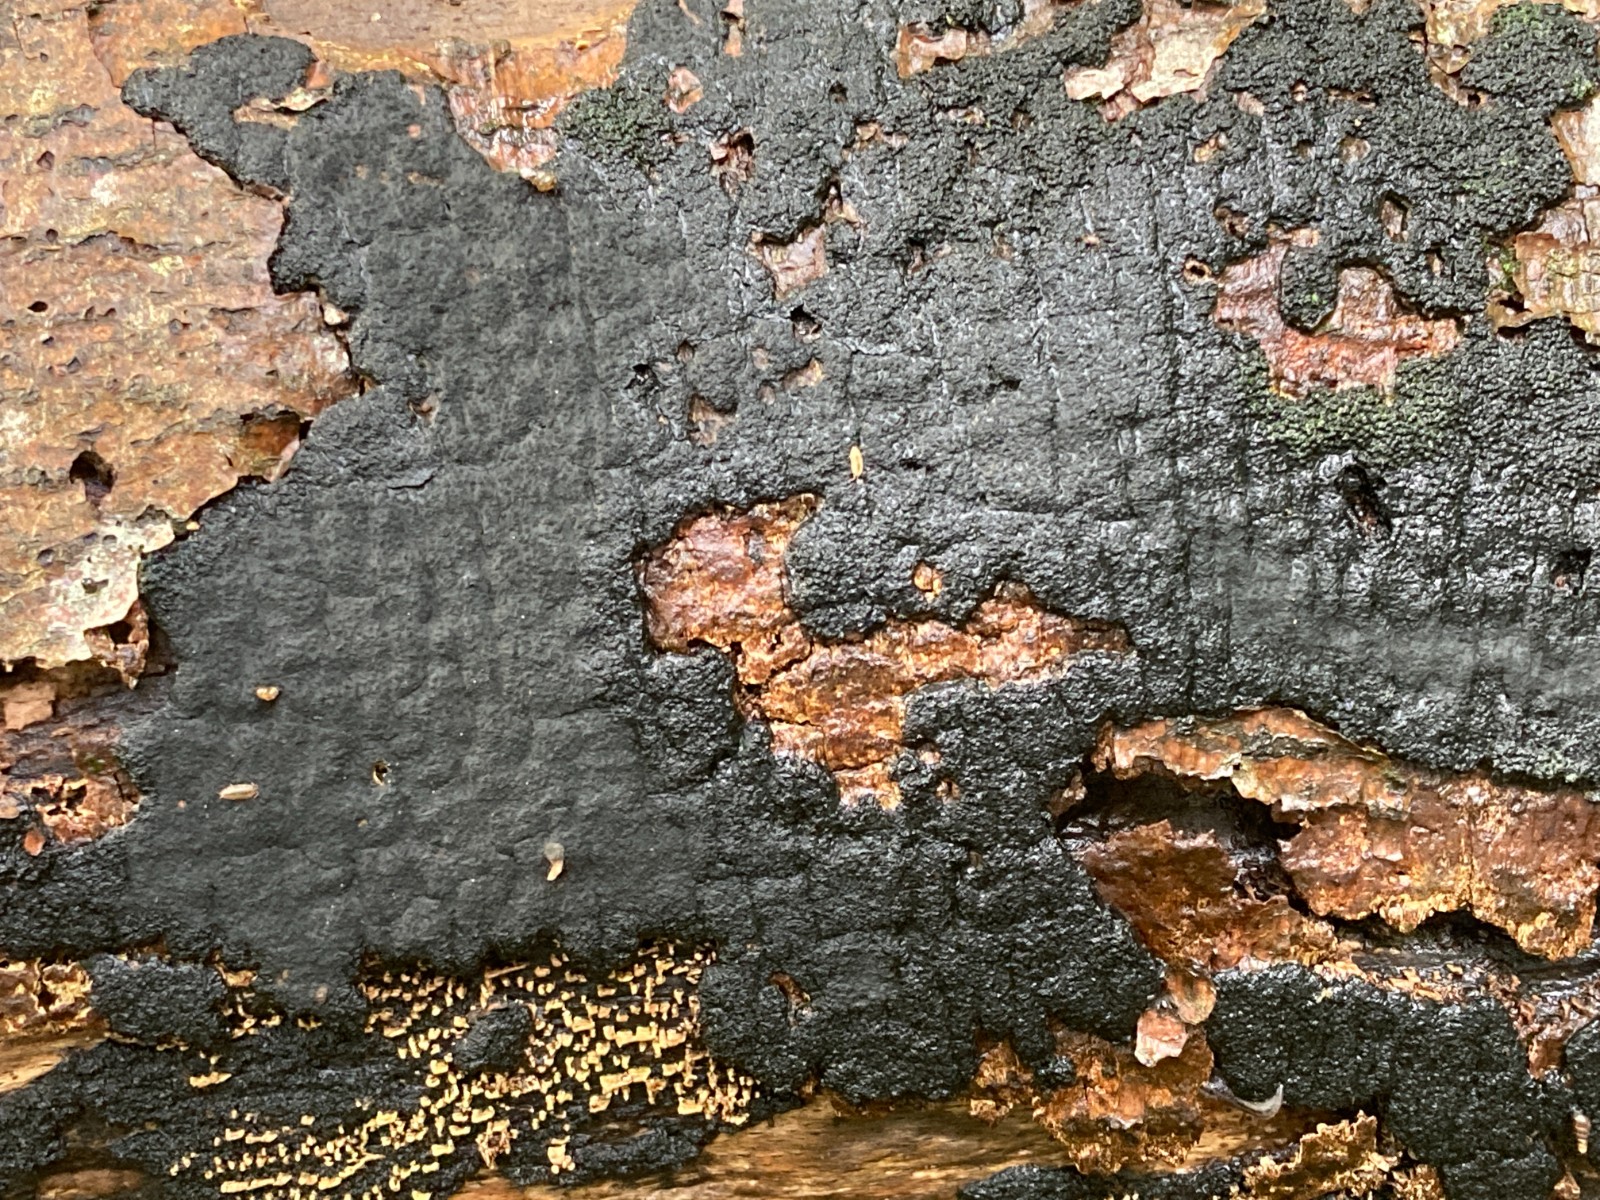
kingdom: Fungi
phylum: Ascomycota
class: Sordariomycetes
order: Xylariales
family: Diatrypaceae
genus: Eutypa
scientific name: Eutypa spinosa
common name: grov kulskorpe
